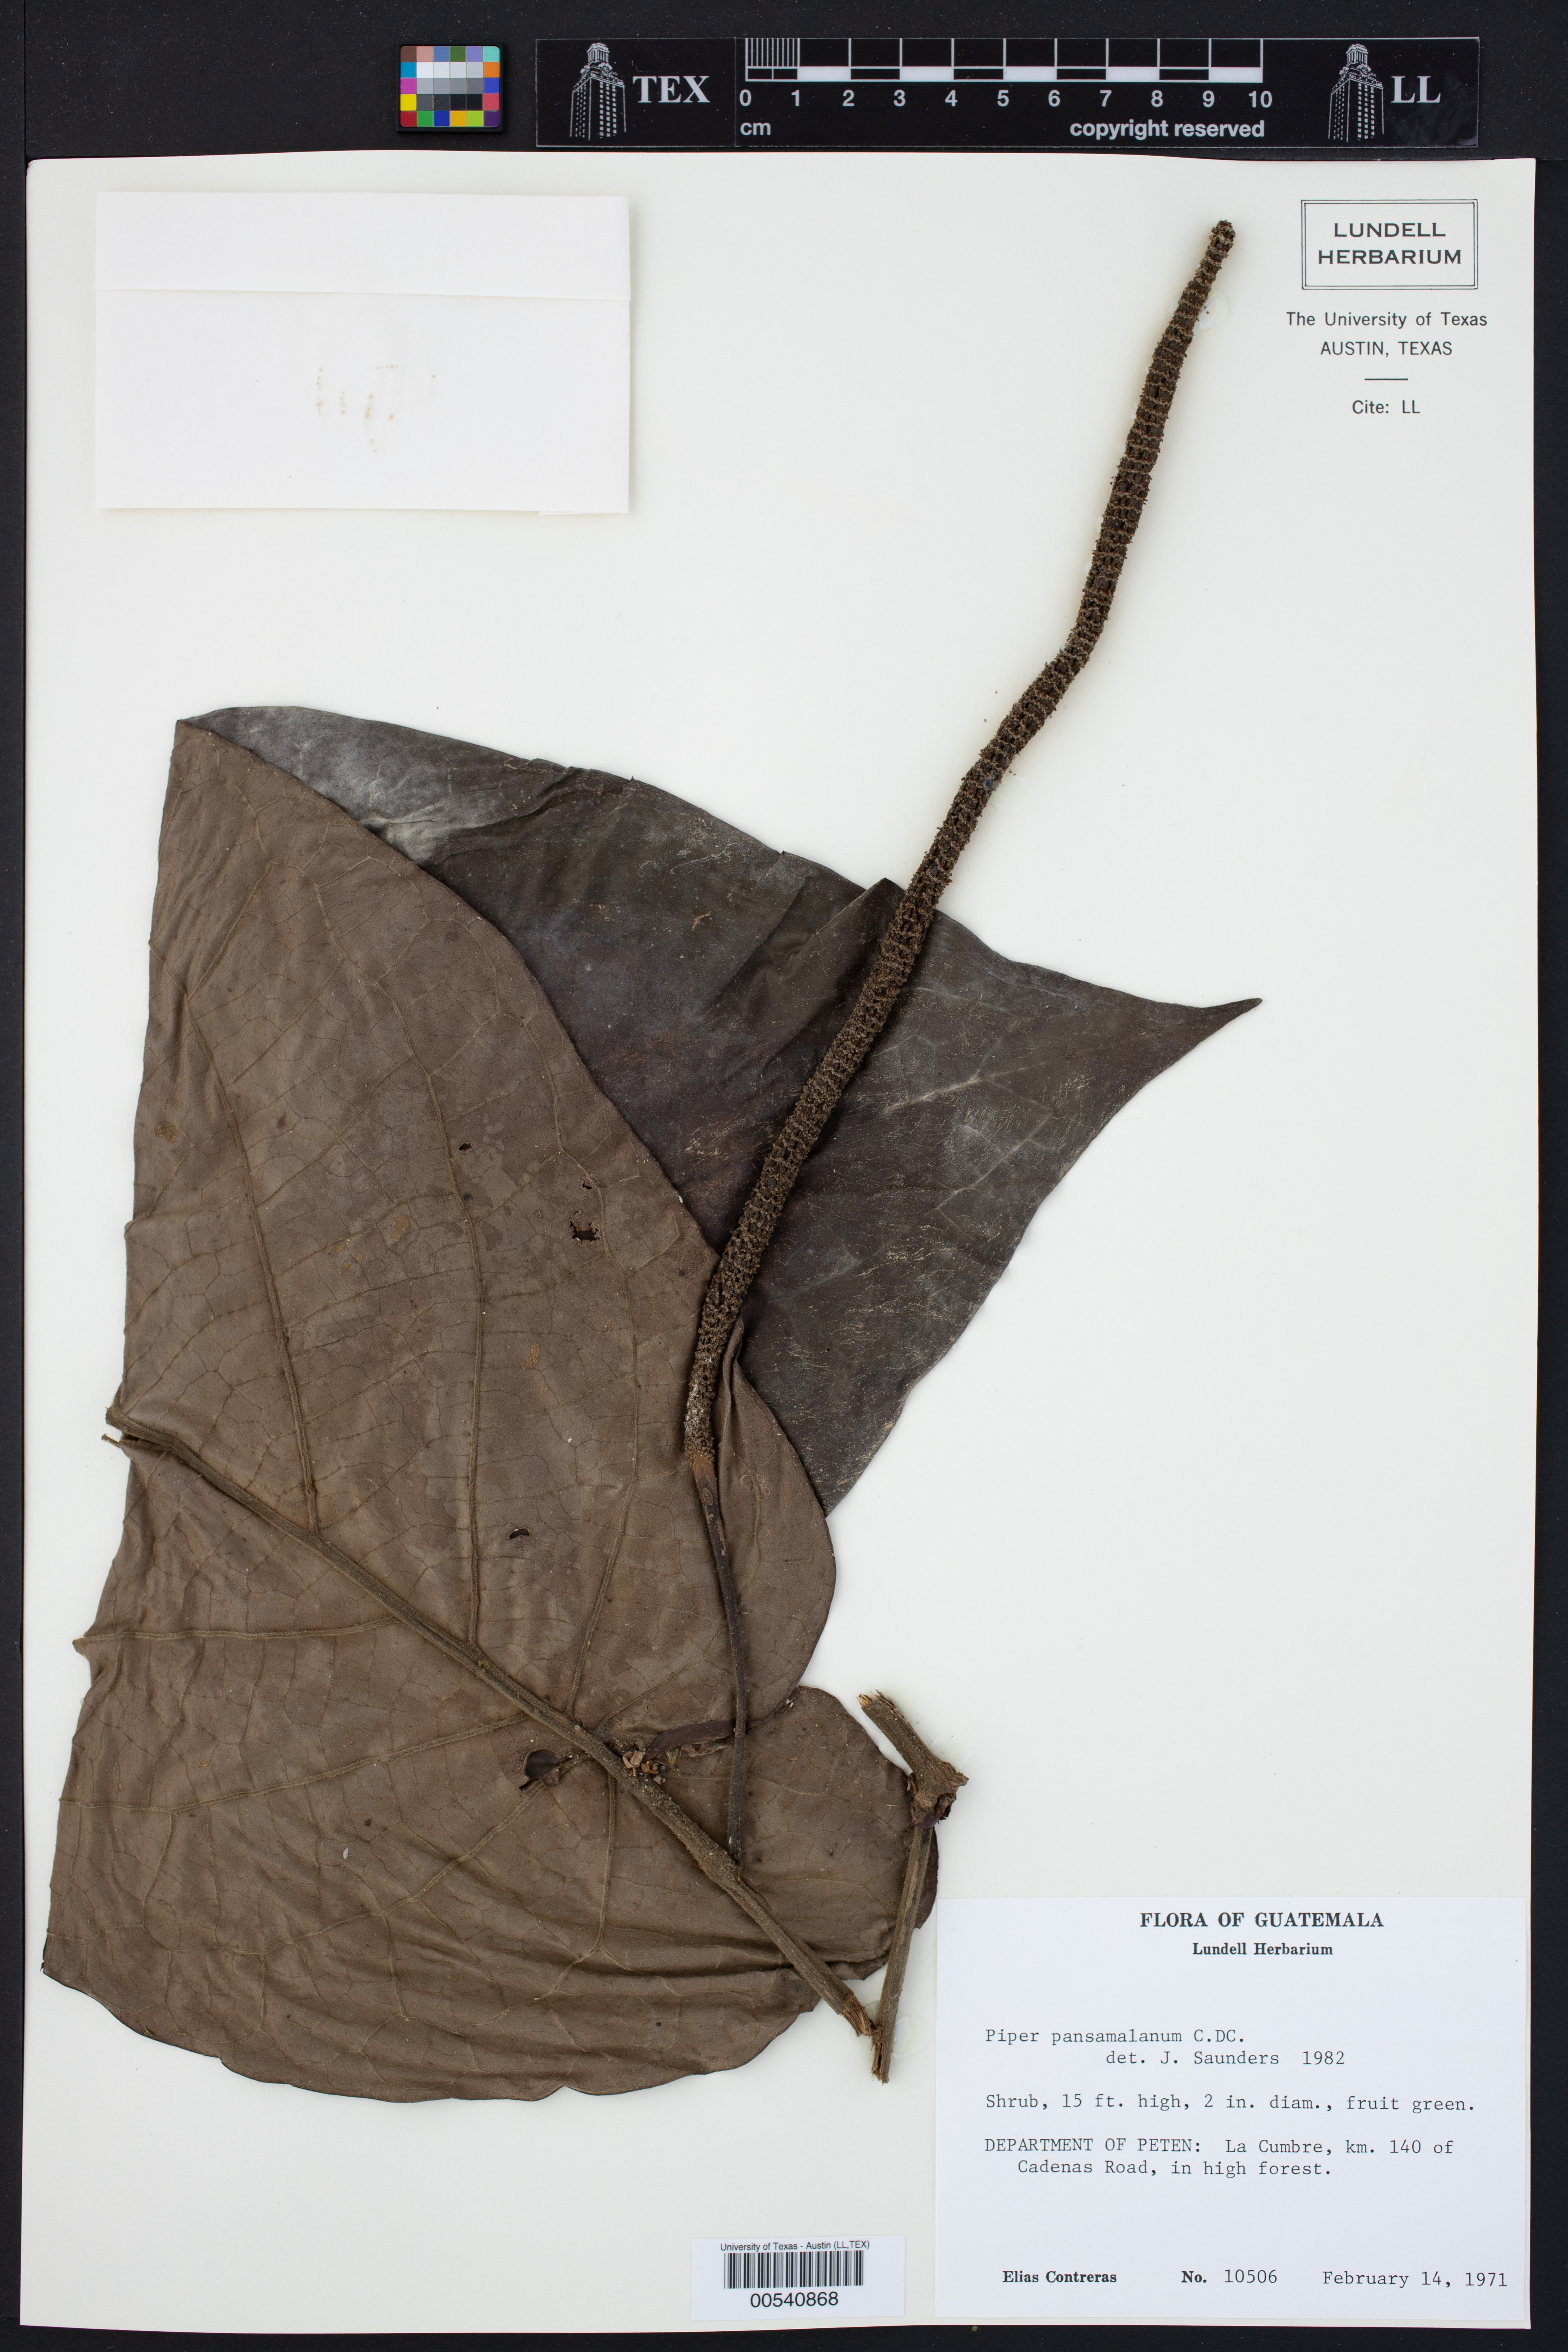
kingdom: Plantae
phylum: Tracheophyta
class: Magnoliopsida
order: Piperales
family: Piperaceae
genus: Piper
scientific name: Piper pansamalanum
